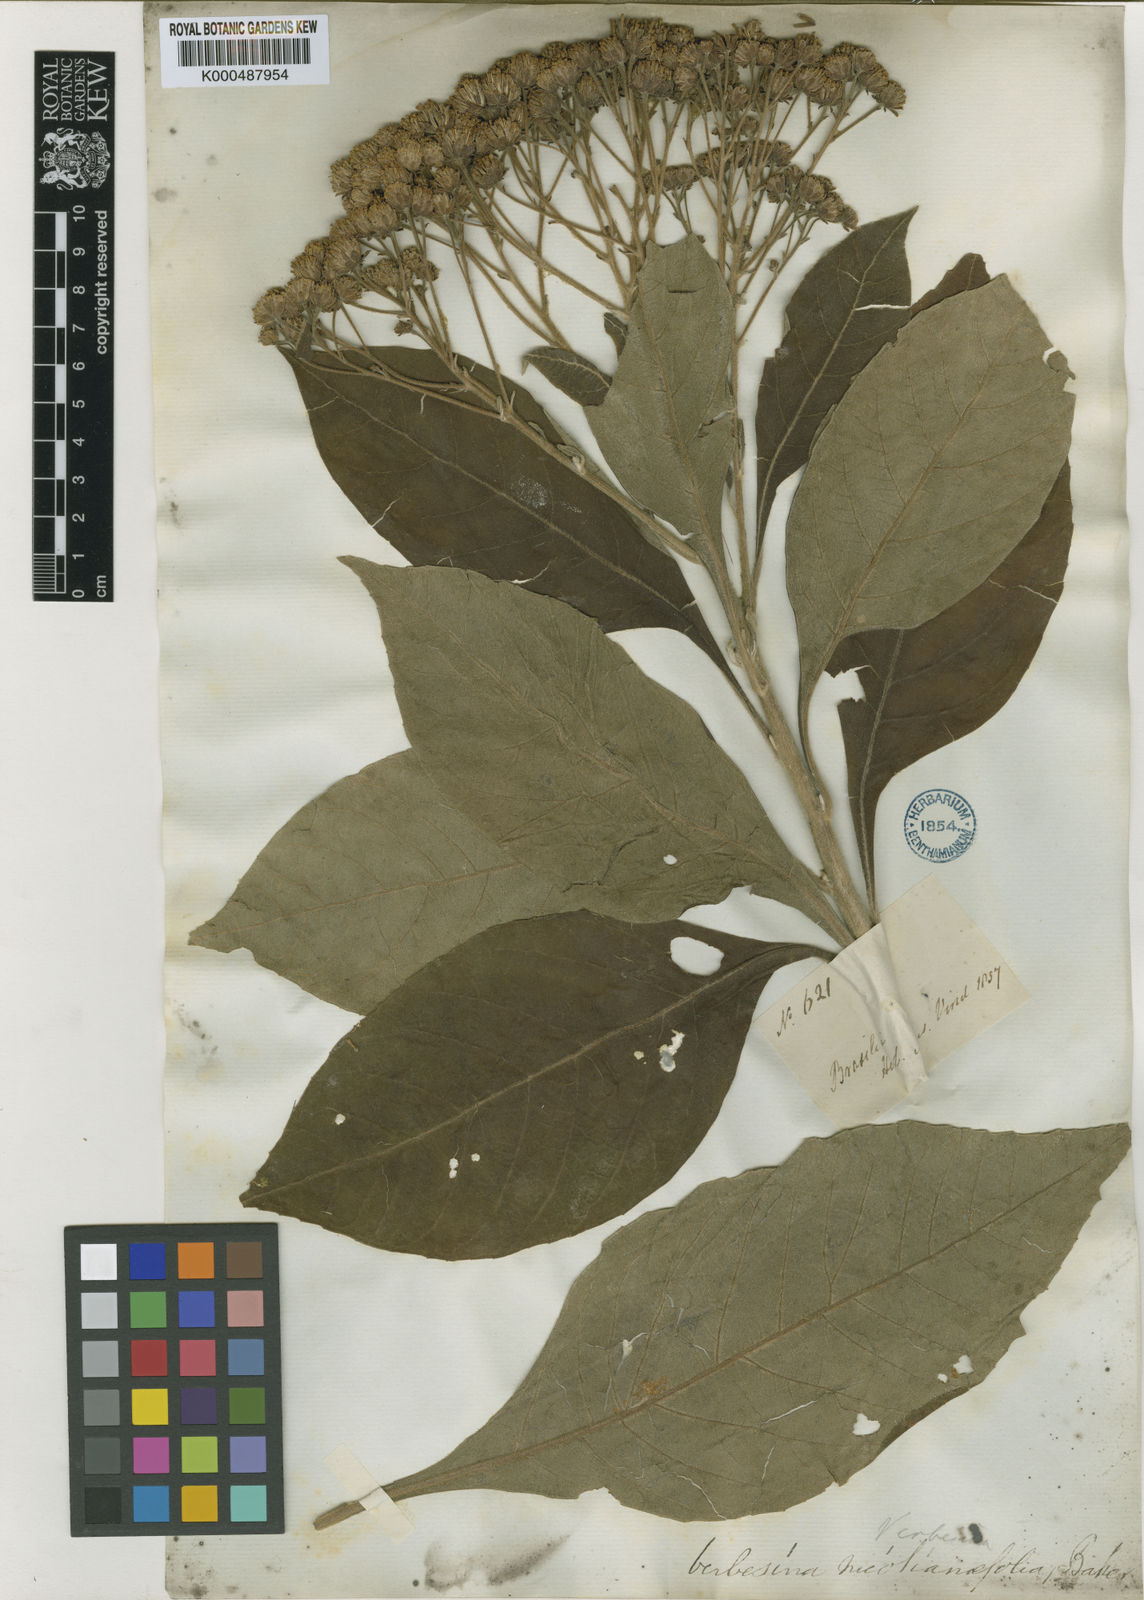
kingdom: Plantae
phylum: Tracheophyta
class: Magnoliopsida
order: Asterales
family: Asteraceae
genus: Verbesina
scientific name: Verbesina nicotianifolia
